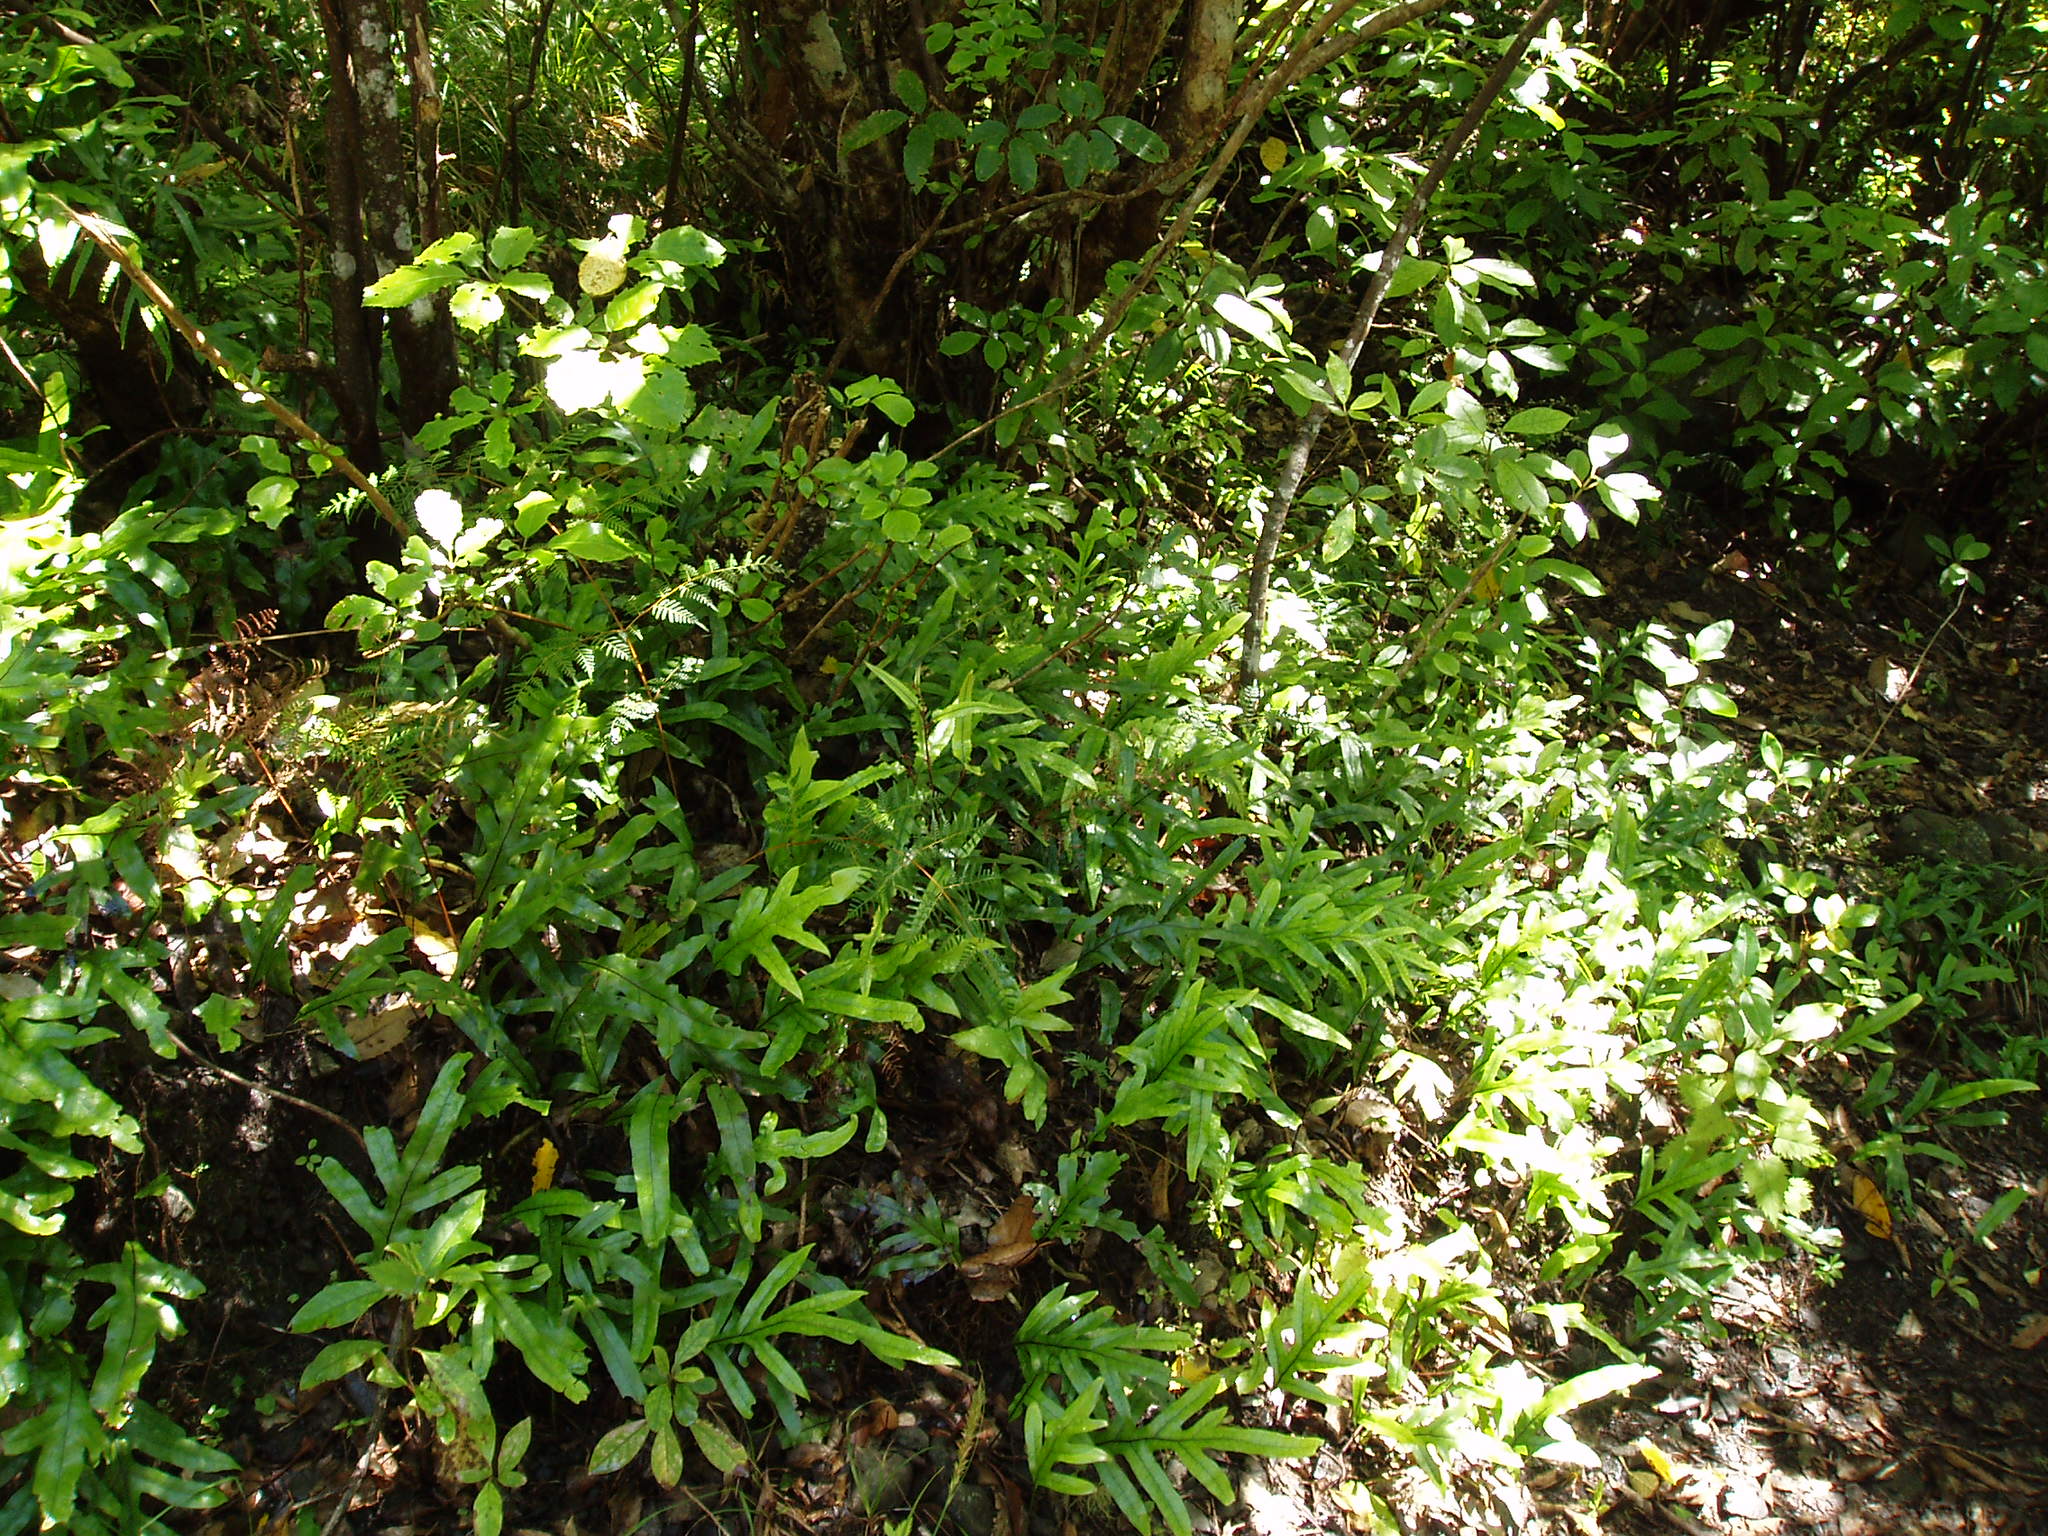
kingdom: Plantae
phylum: Tracheophyta
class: Magnoliopsida
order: Proteales
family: Proteaceae
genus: Knightia
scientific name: Knightia excelsa
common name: New zealand-honeysuckle
